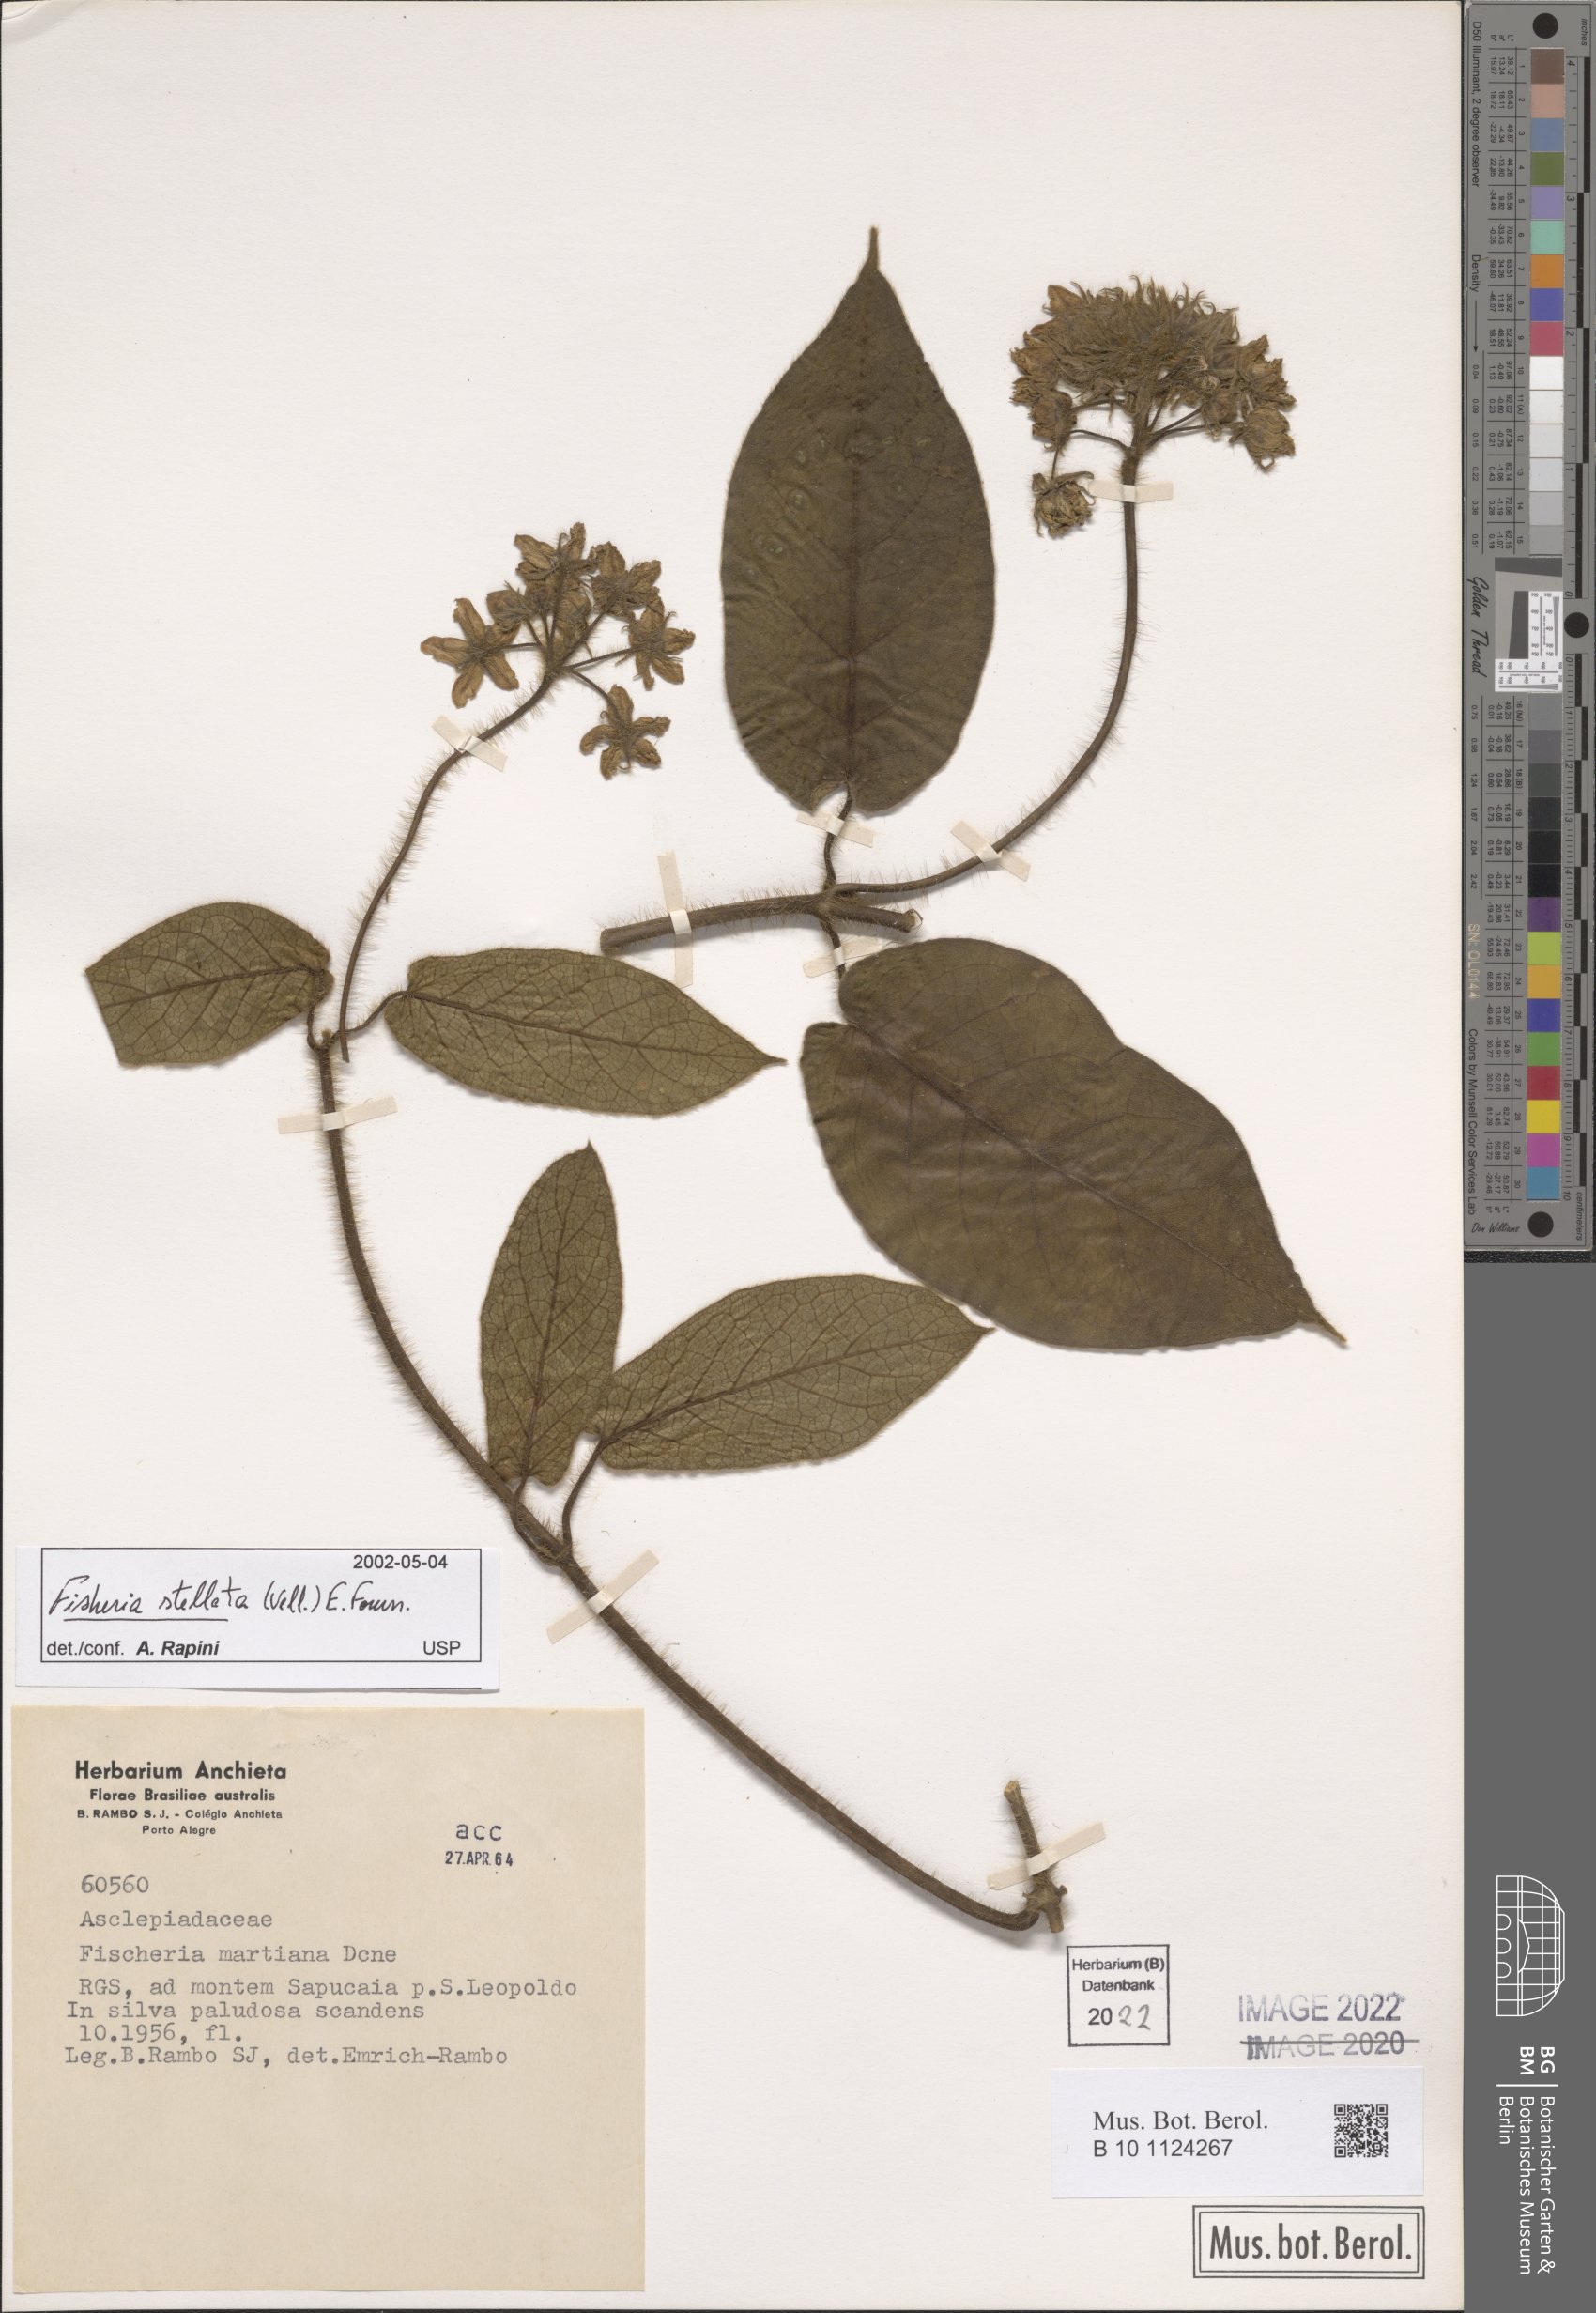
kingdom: Plantae
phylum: Tracheophyta
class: Magnoliopsida
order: Gentianales
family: Apocynaceae
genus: Fischeria
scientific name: Fischeria stellata
